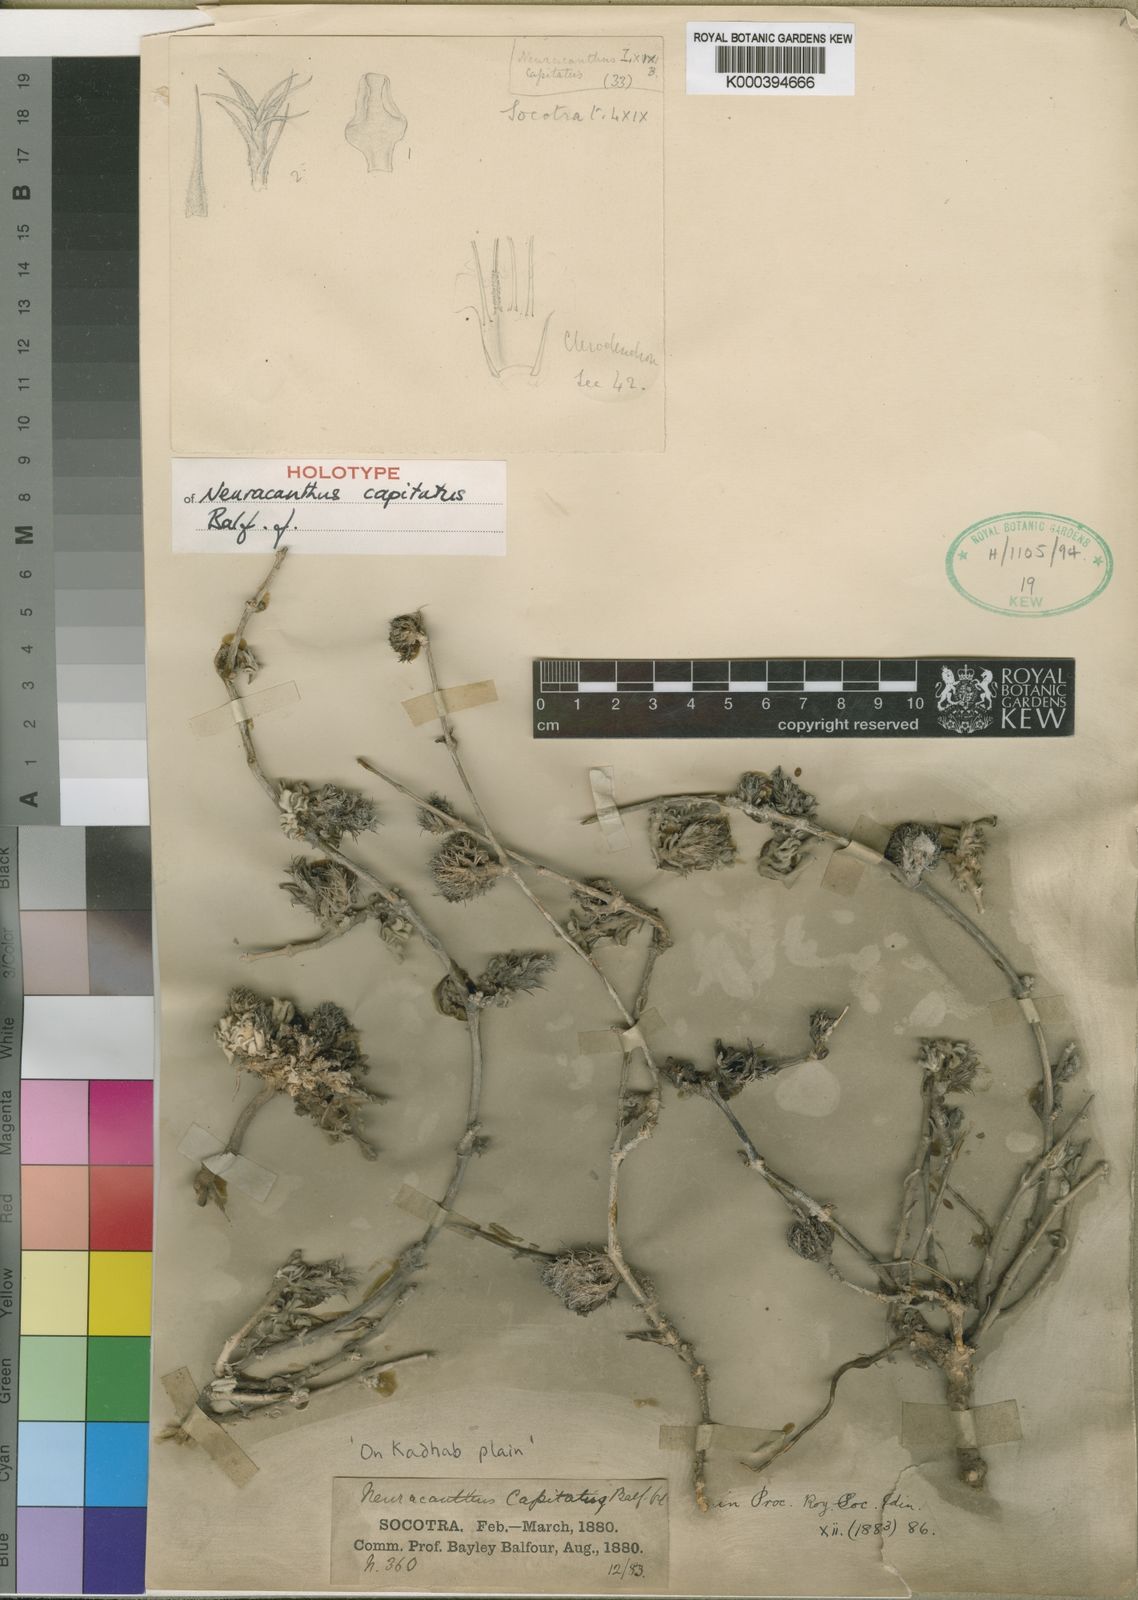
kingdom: Plantae
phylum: Tracheophyta
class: Magnoliopsida
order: Lamiales
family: Acanthaceae
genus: Neuracanthus
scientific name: Neuracanthus capitatus
